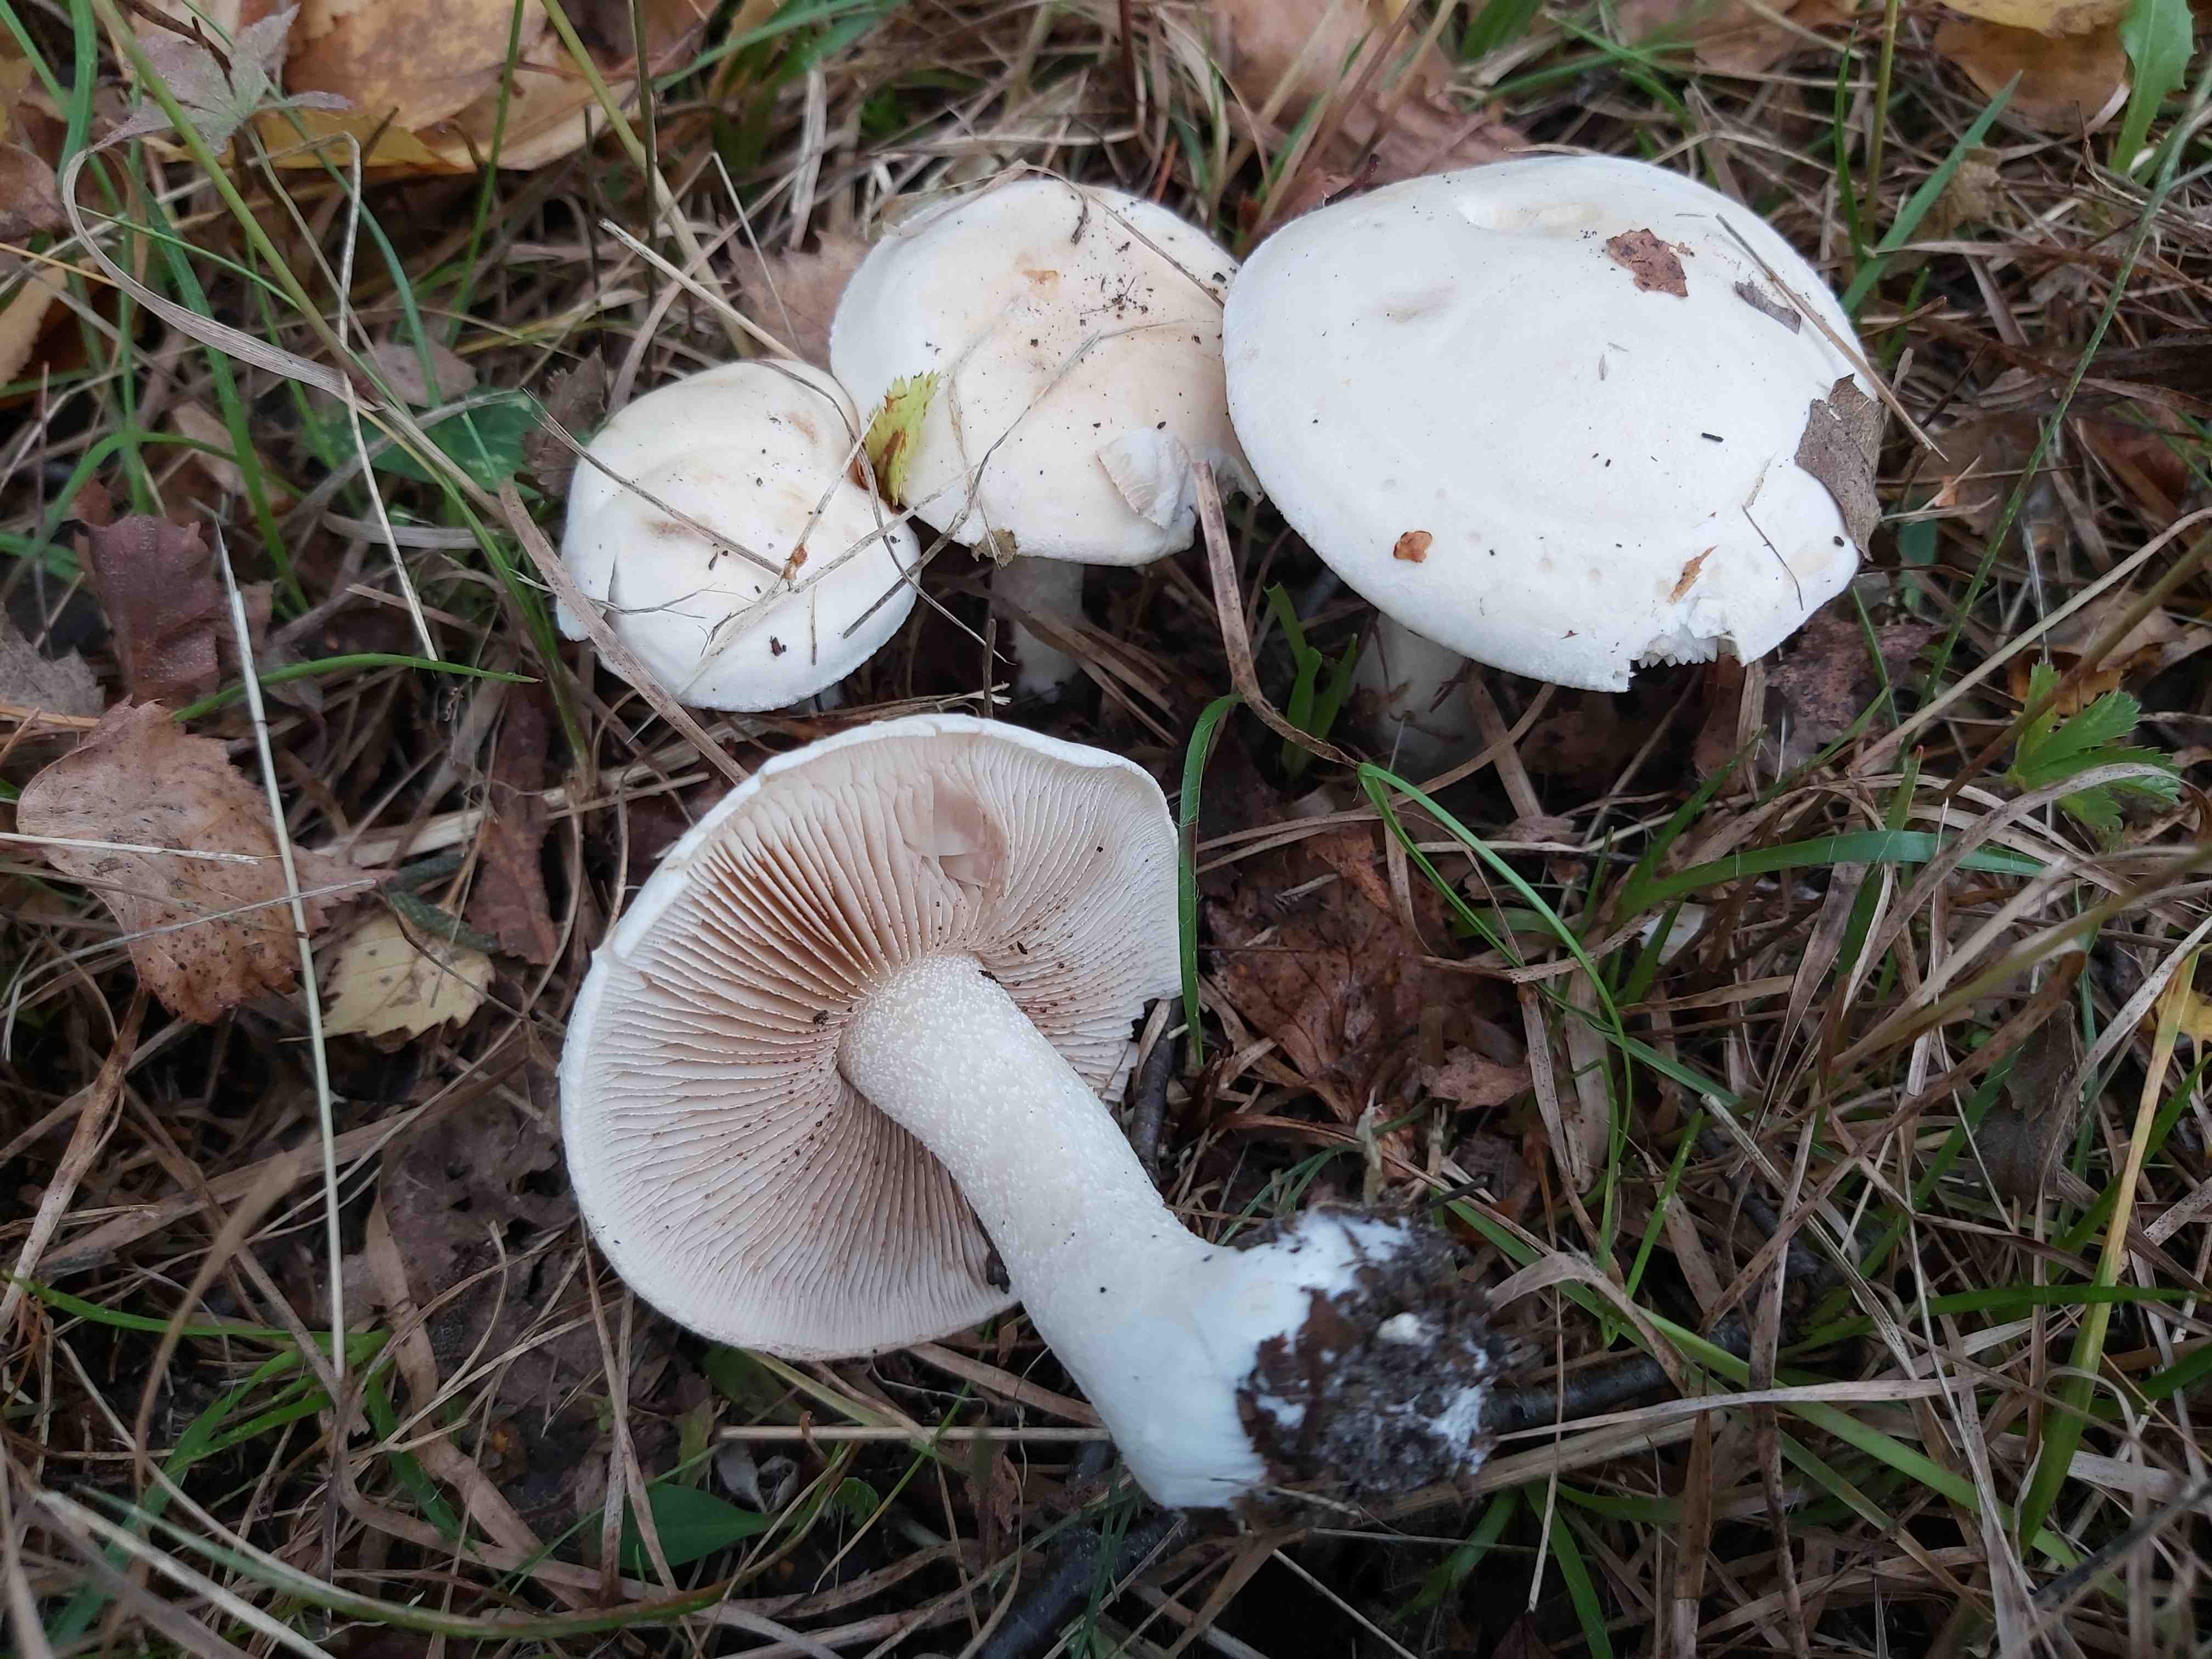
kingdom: Fungi
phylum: Basidiomycota
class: Agaricomycetes
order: Agaricales
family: Hymenogastraceae
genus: Hebeloma
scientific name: Hebeloma crustuliniforme
